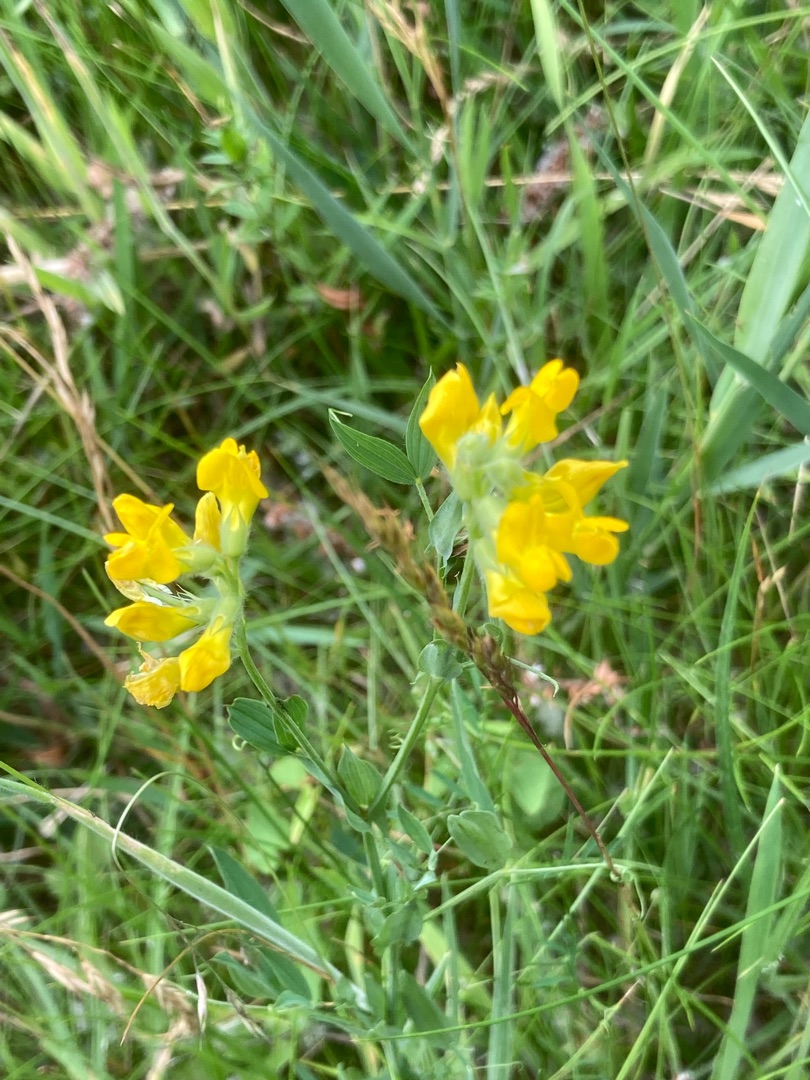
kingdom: Plantae
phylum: Tracheophyta
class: Magnoliopsida
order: Fabales
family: Fabaceae
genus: Lathyrus
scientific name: Lathyrus pratensis
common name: Gul fladbælg
